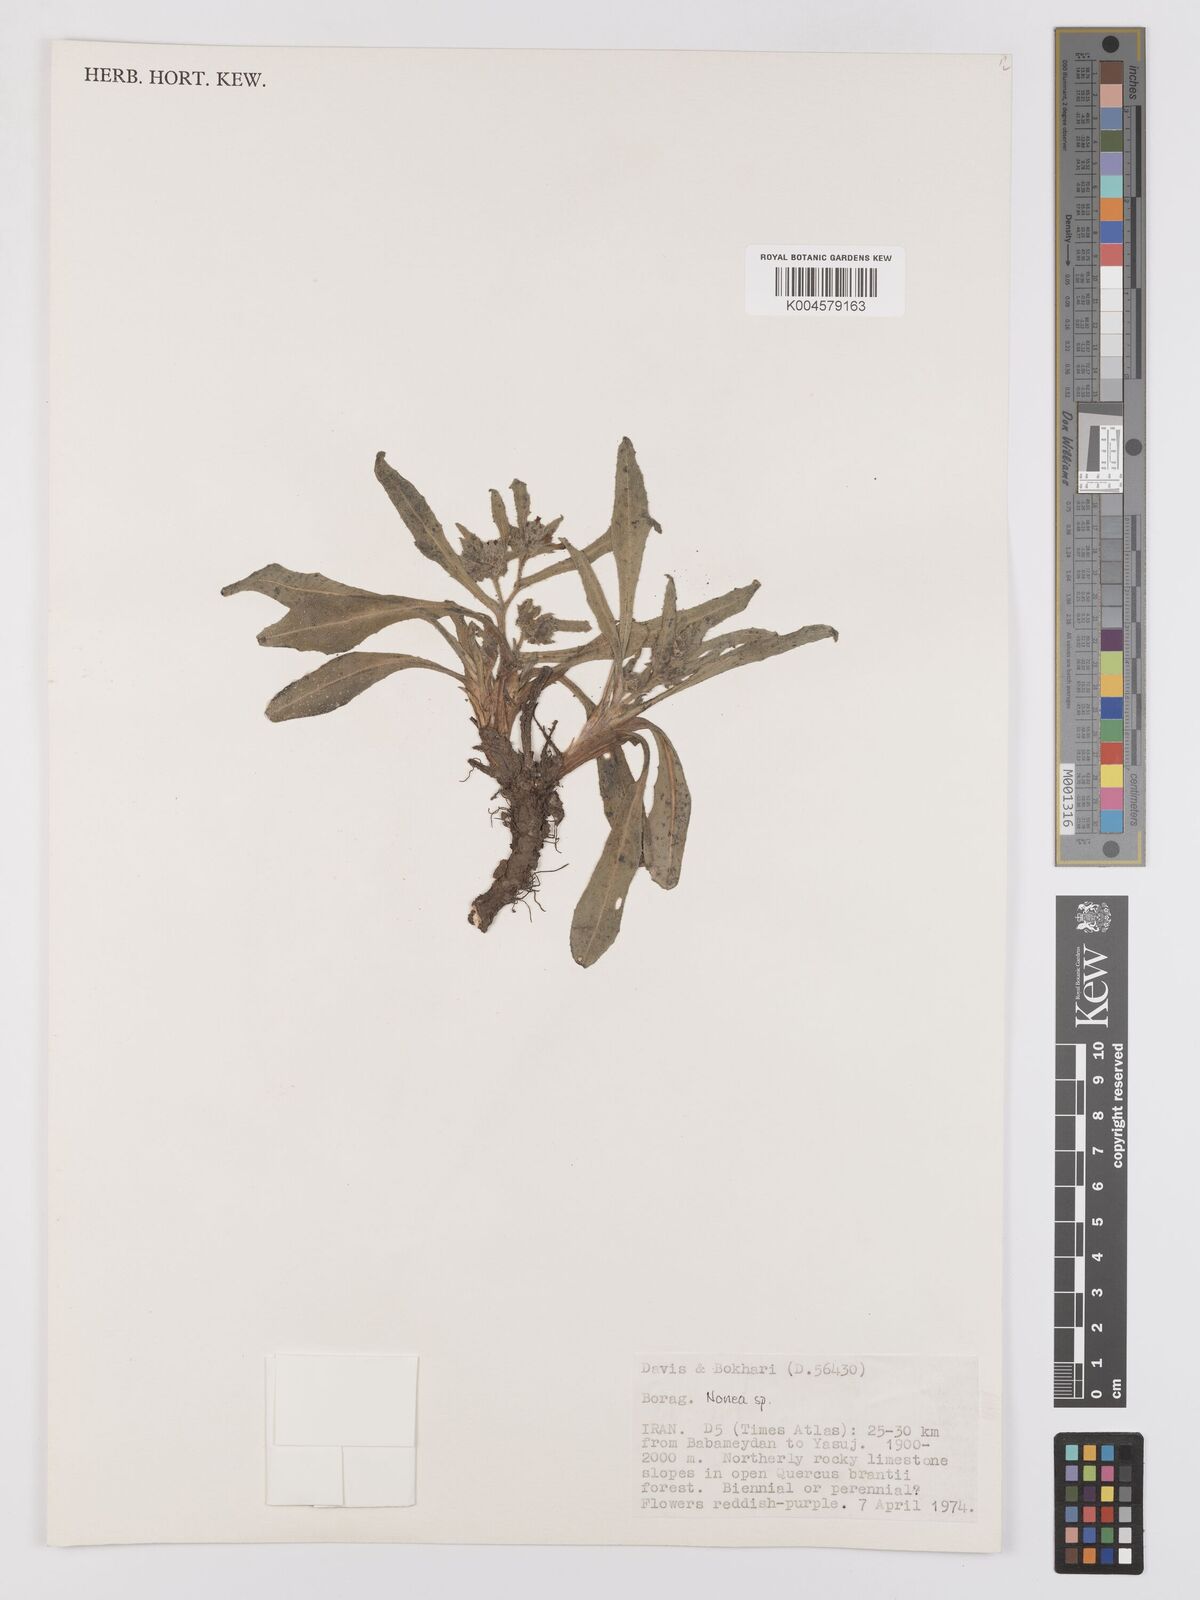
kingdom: Plantae
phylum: Tracheophyta
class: Magnoliopsida
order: Boraginales
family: Boraginaceae
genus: Nonea
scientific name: Nonea
